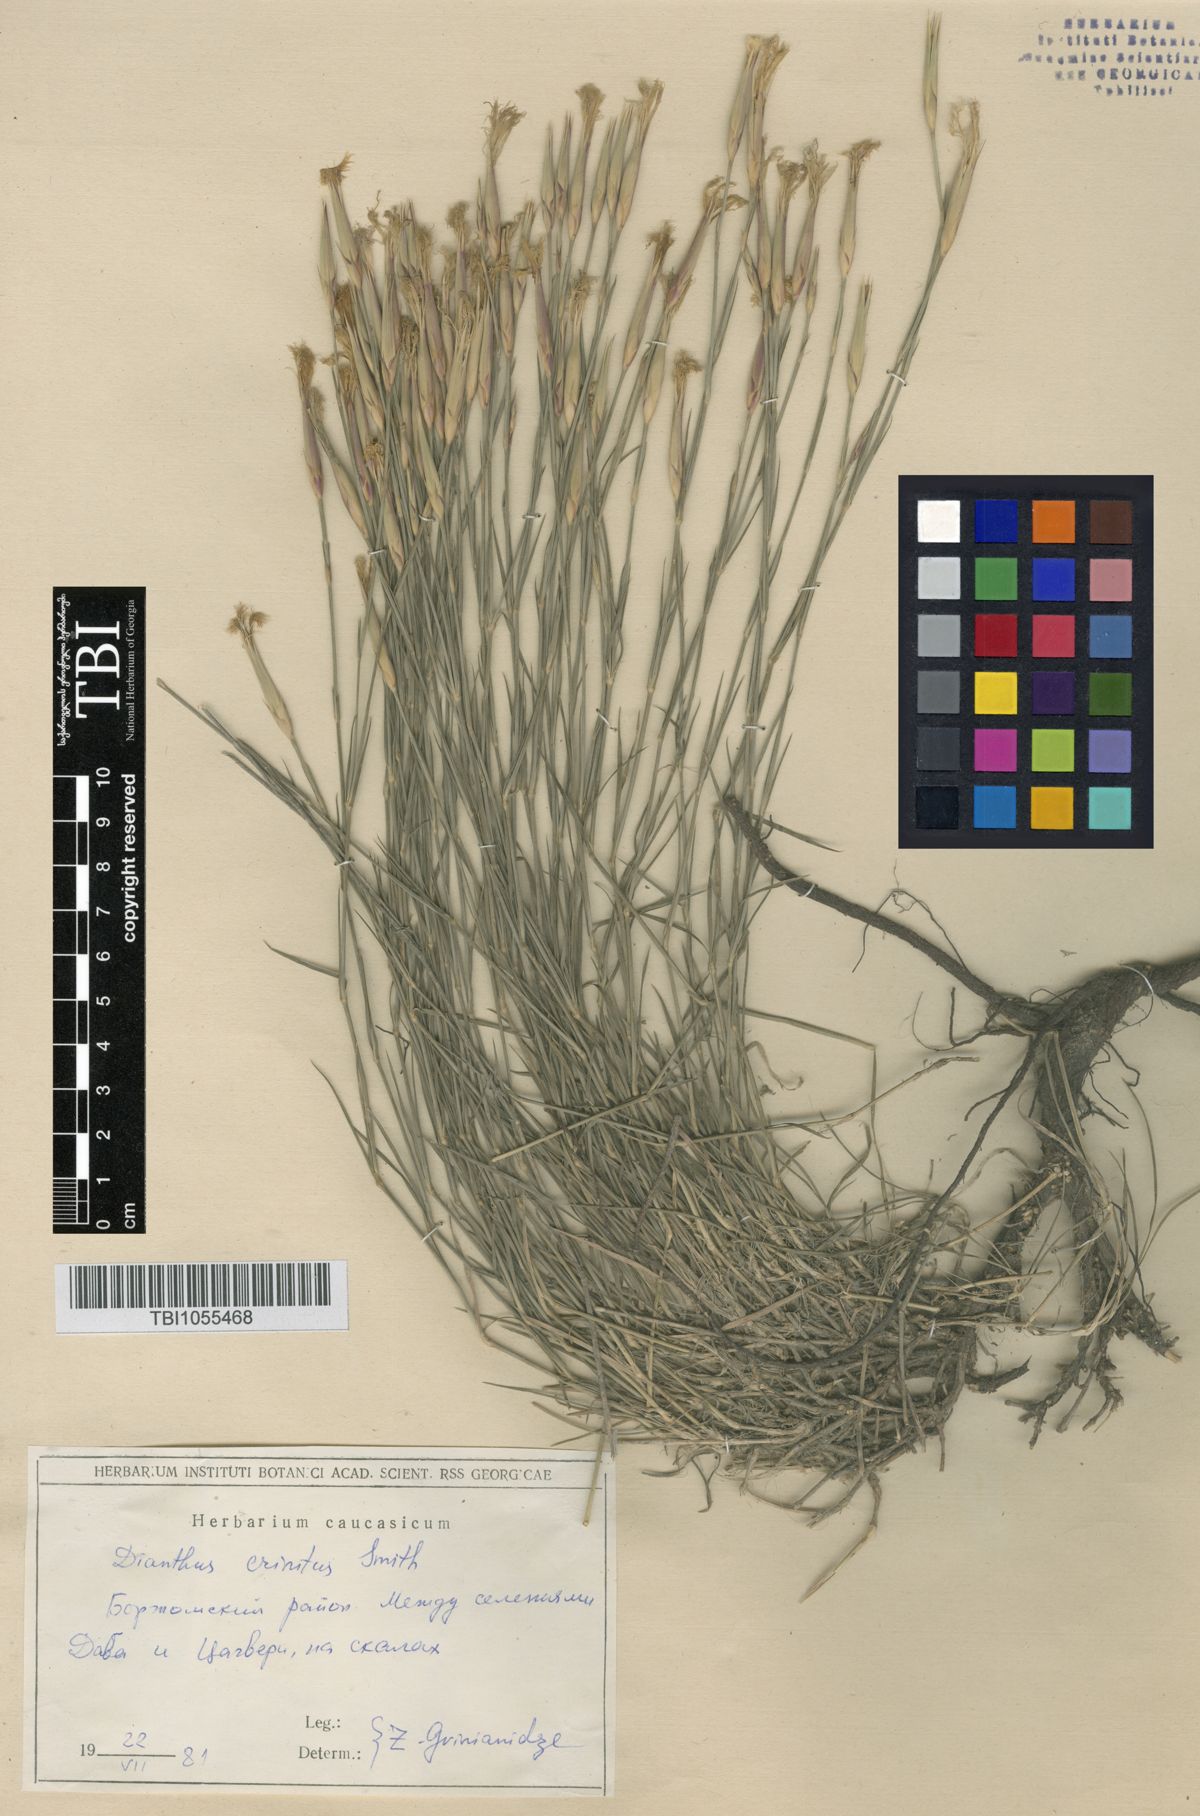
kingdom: Plantae
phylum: Tracheophyta
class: Magnoliopsida
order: Caryophyllales
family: Caryophyllaceae
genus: Dianthus
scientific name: Dianthus crinitus
